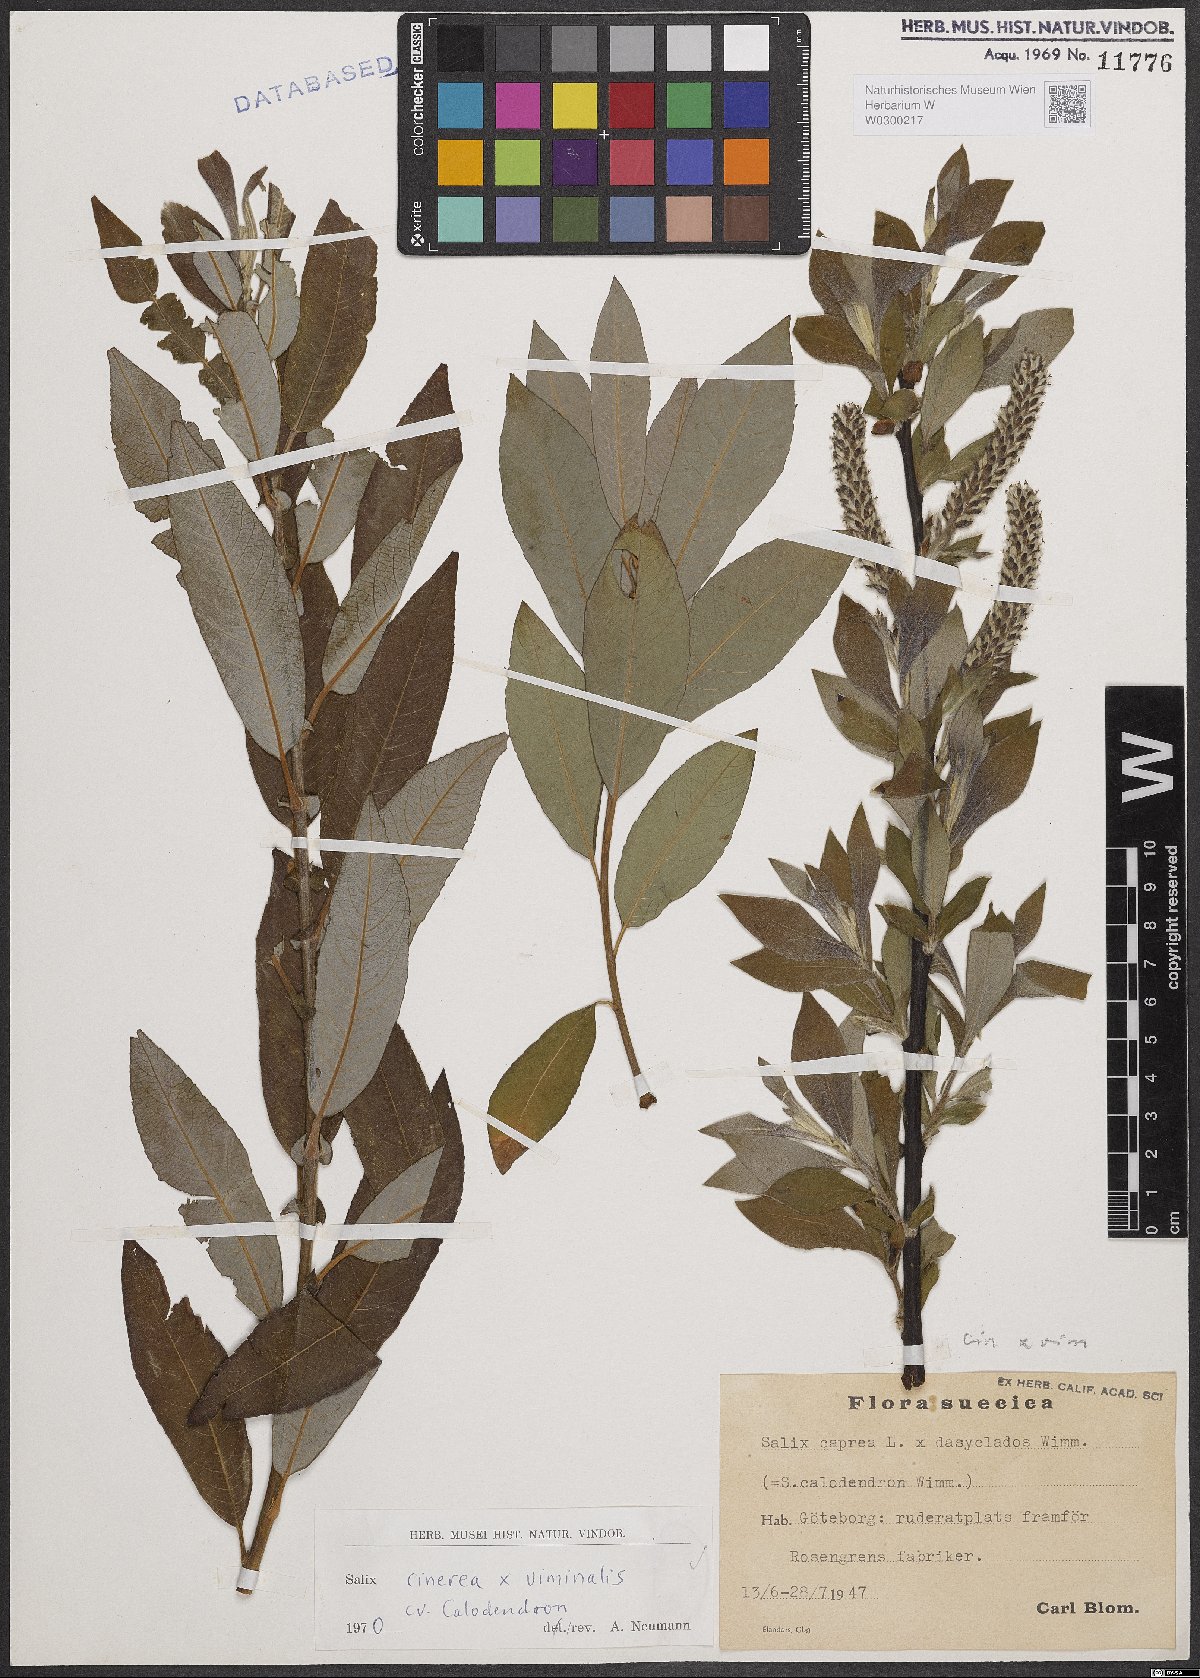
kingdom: Plantae
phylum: Tracheophyta
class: Magnoliopsida
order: Malpighiales
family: Salicaceae
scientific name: Salicaceae
